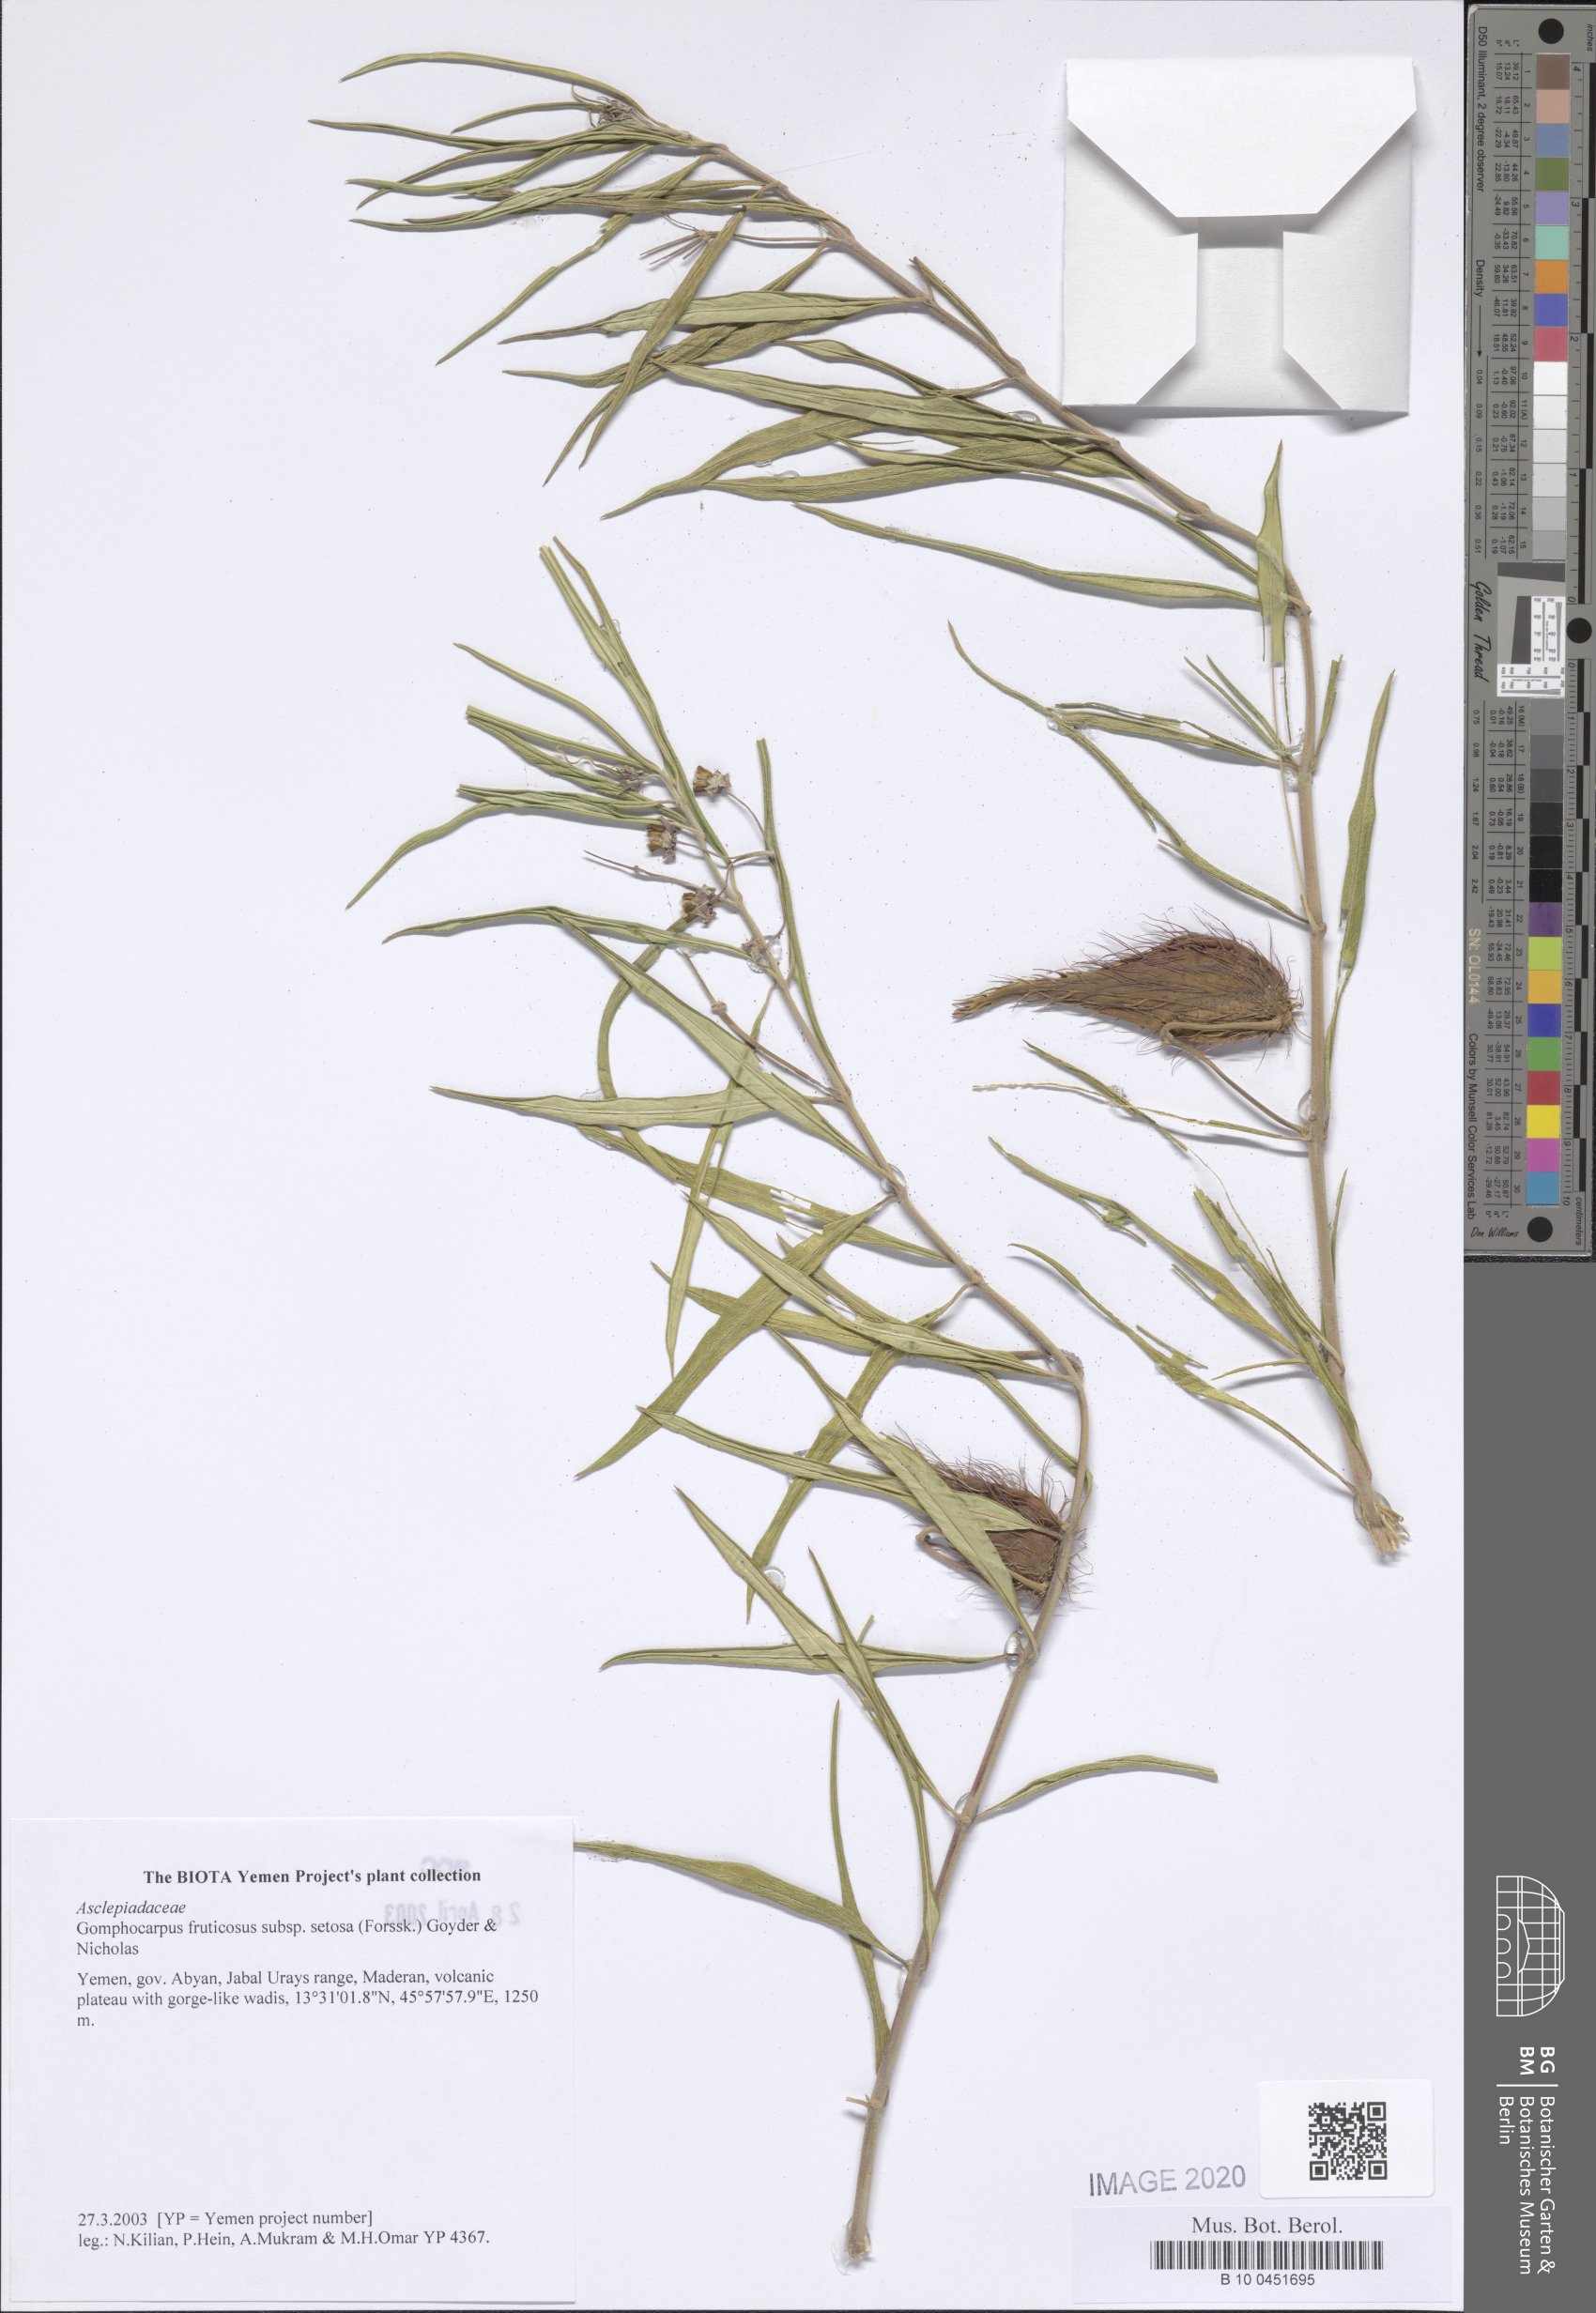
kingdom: Plantae
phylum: Tracheophyta
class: Magnoliopsida
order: Gentianales
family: Apocynaceae
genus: Gomphocarpus
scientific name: Gomphocarpus fruticosus
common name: Milkweed
